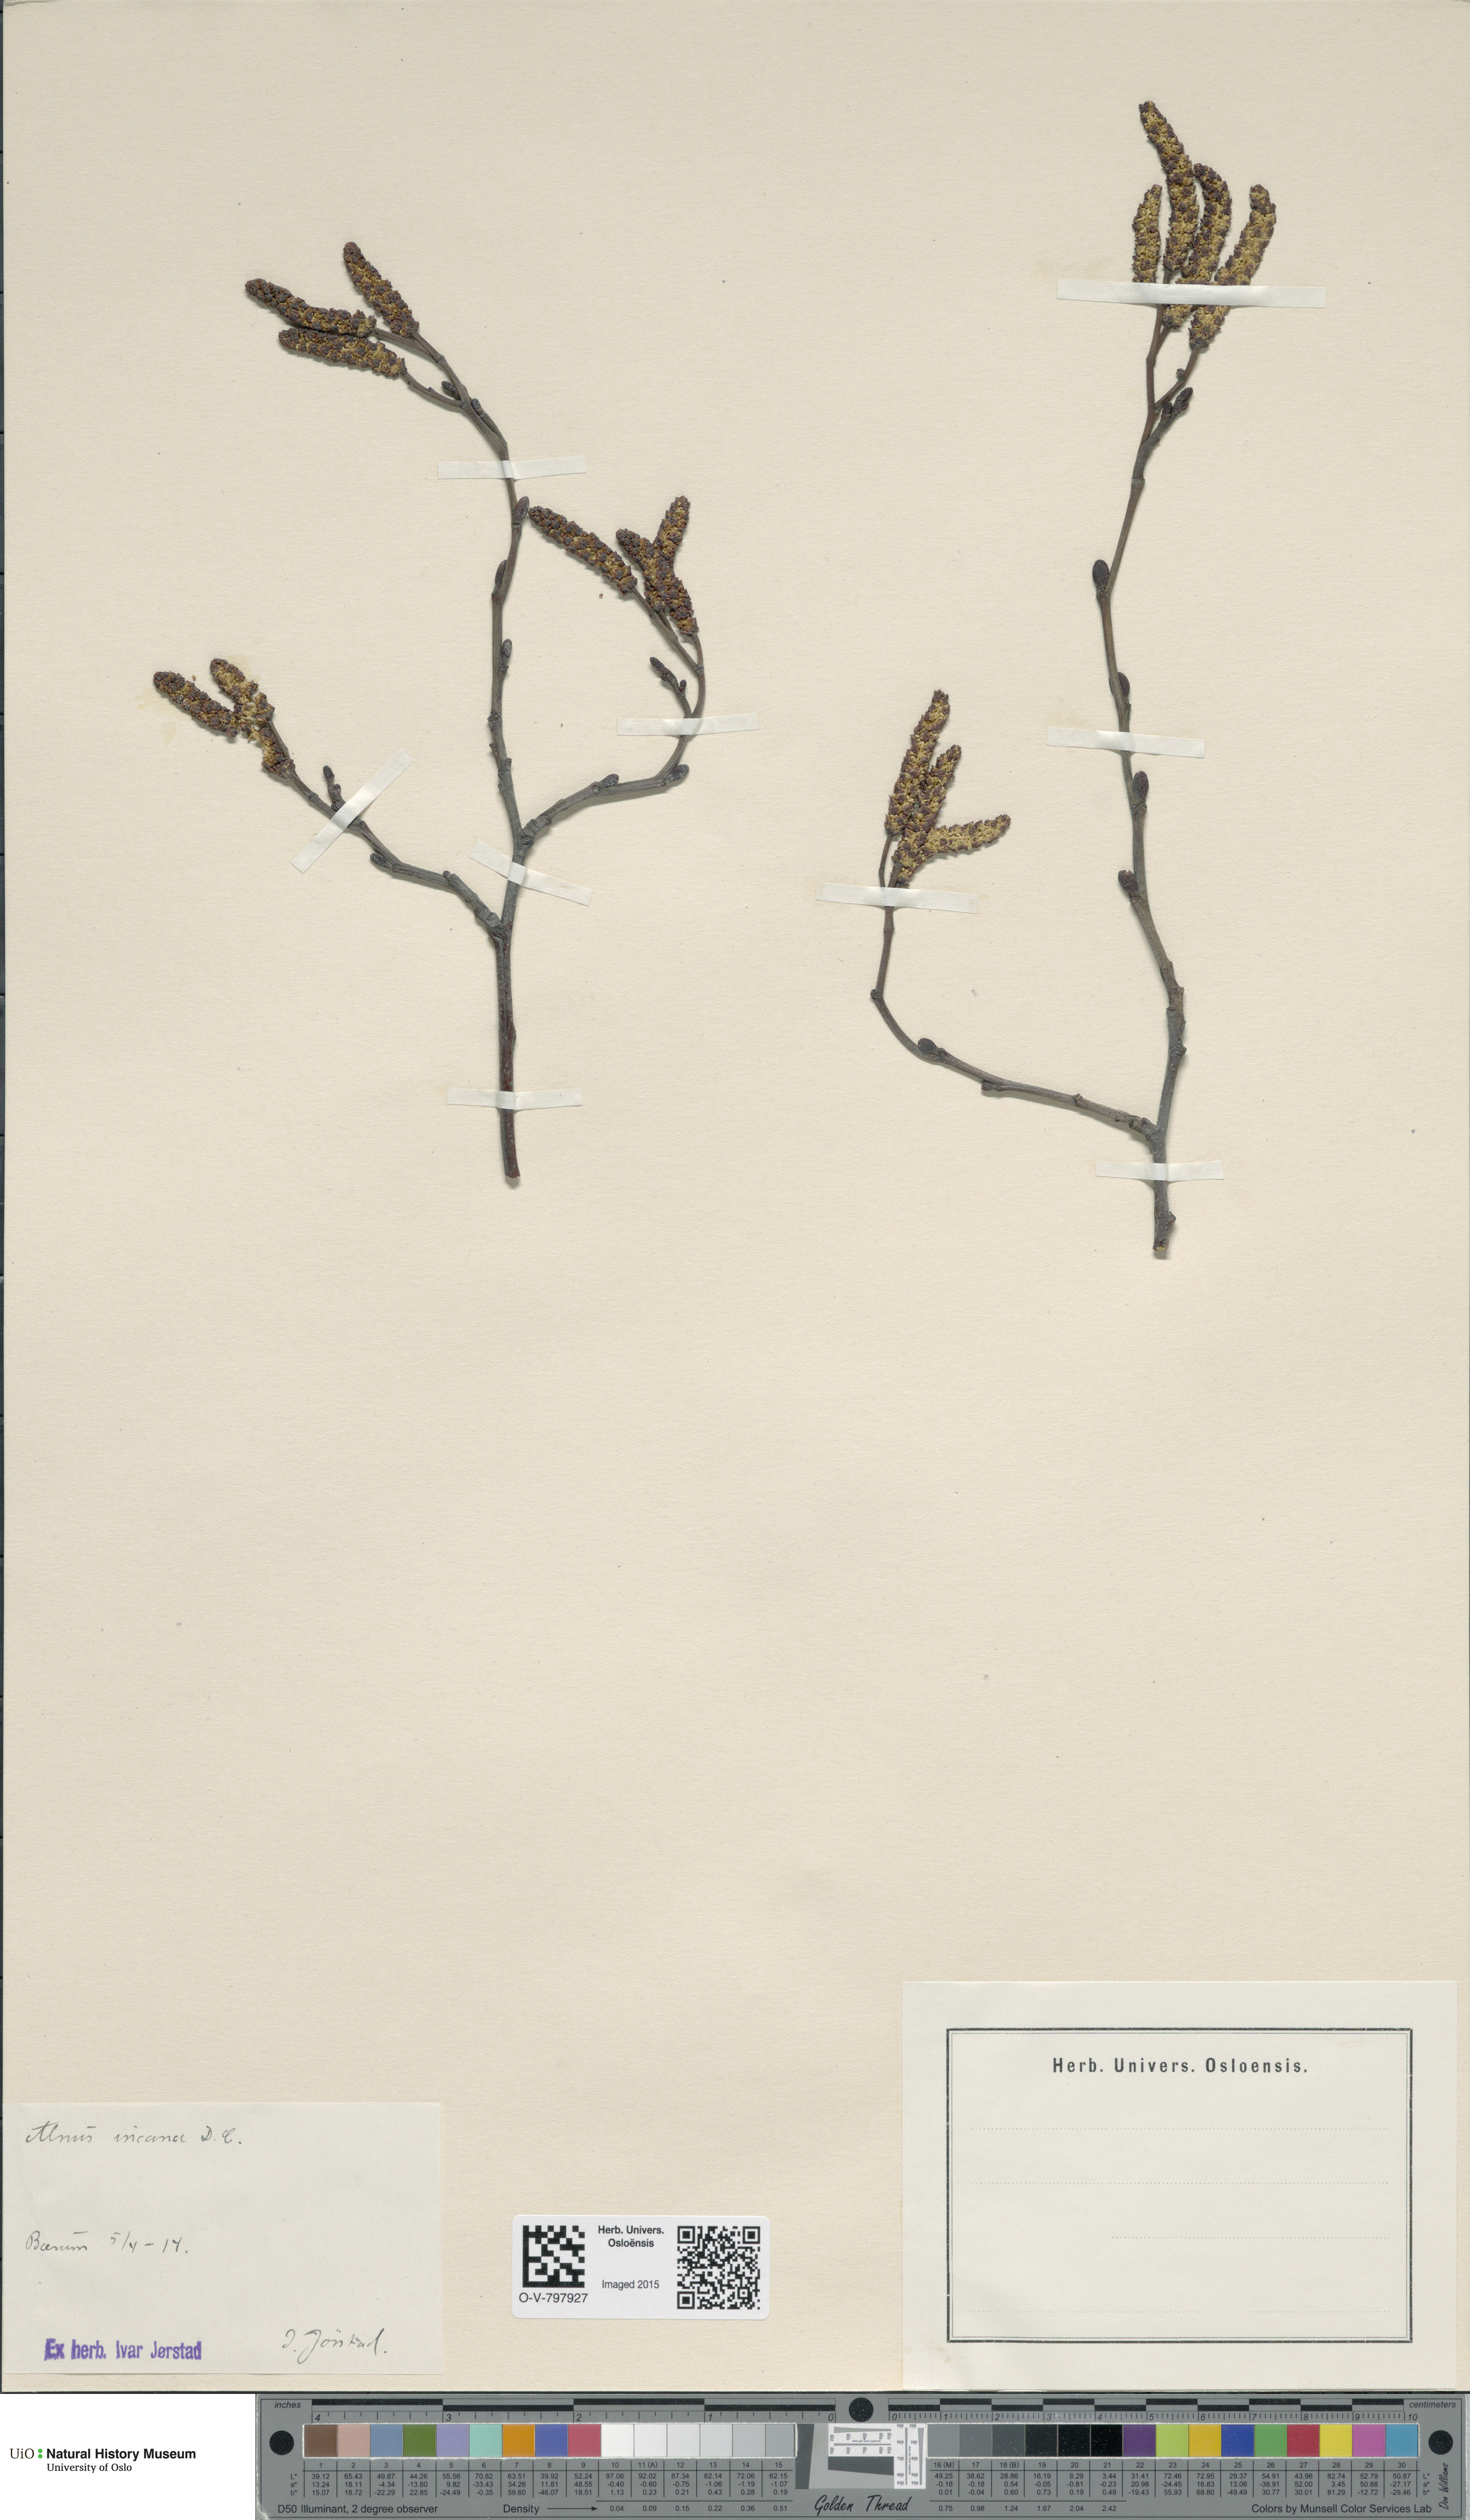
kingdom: Plantae
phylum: Tracheophyta
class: Magnoliopsida
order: Fagales
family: Betulaceae
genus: Alnus
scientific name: Alnus incana
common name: Grey alder
